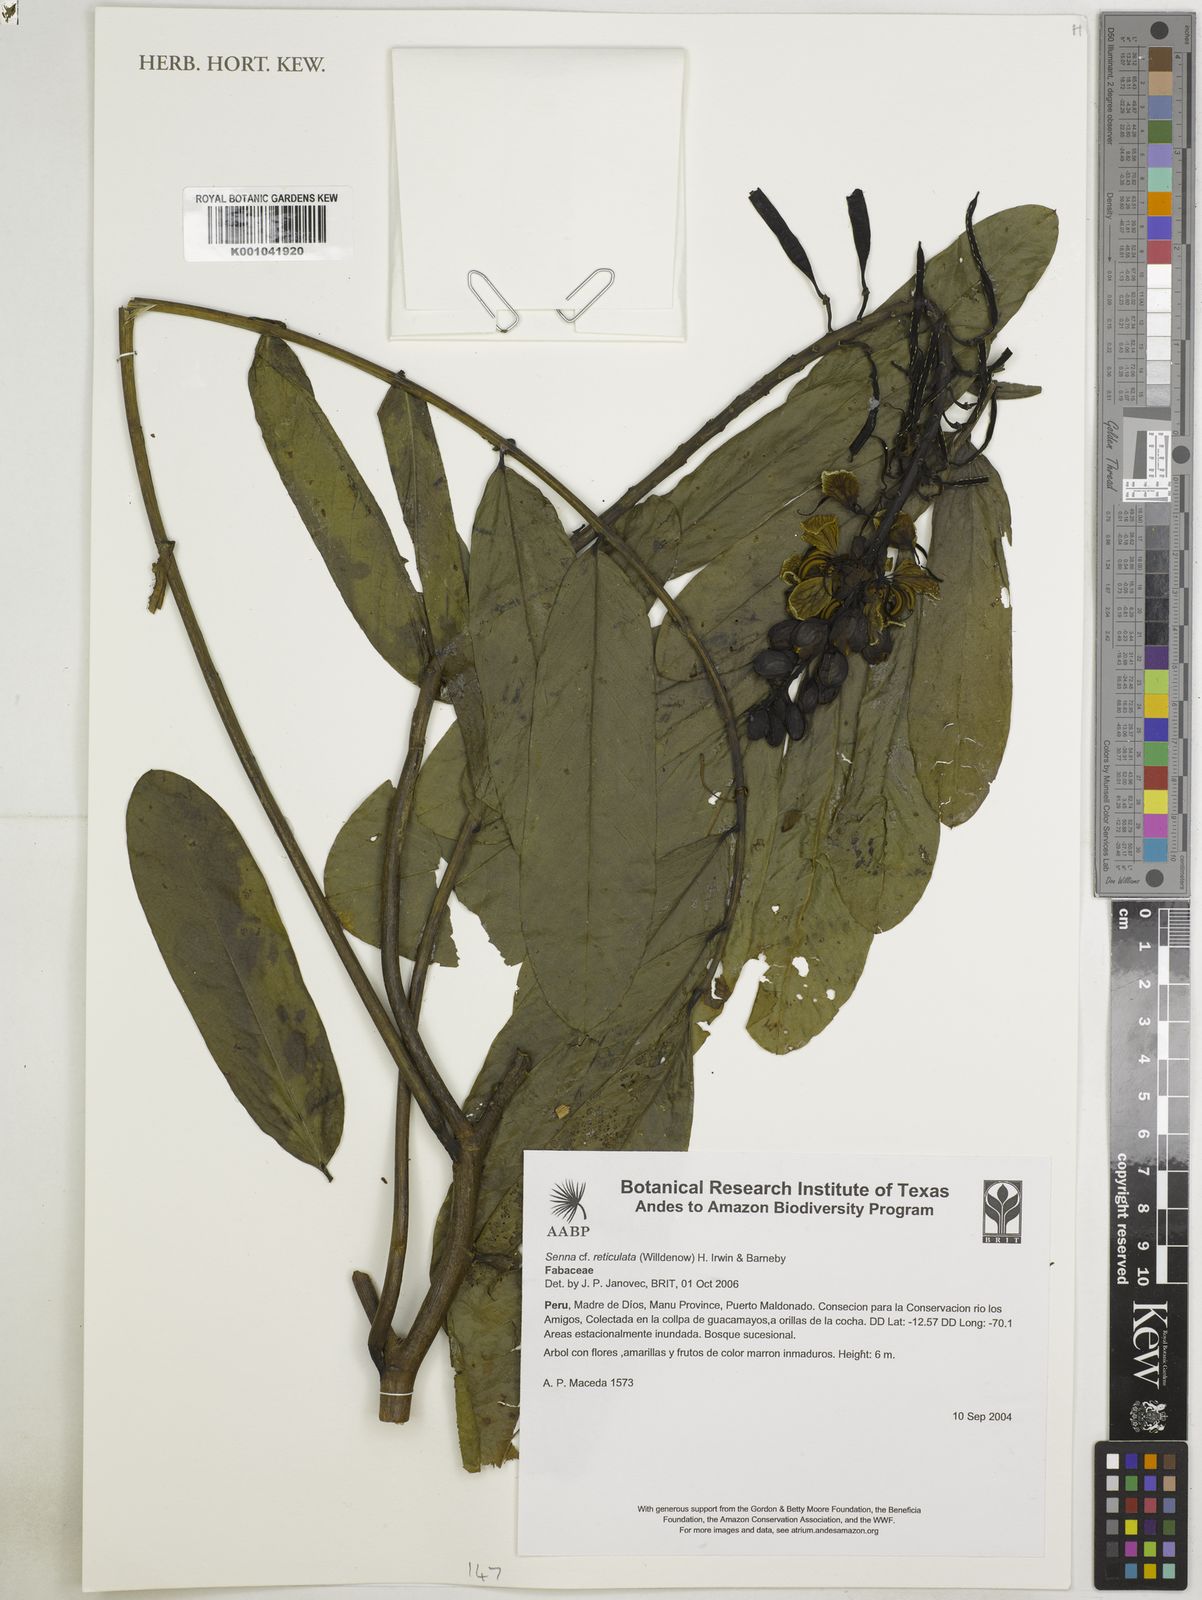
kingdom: Plantae
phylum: Tracheophyta
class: Magnoliopsida
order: Fabales
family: Fabaceae
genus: Senna
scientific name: Senna reticulata
